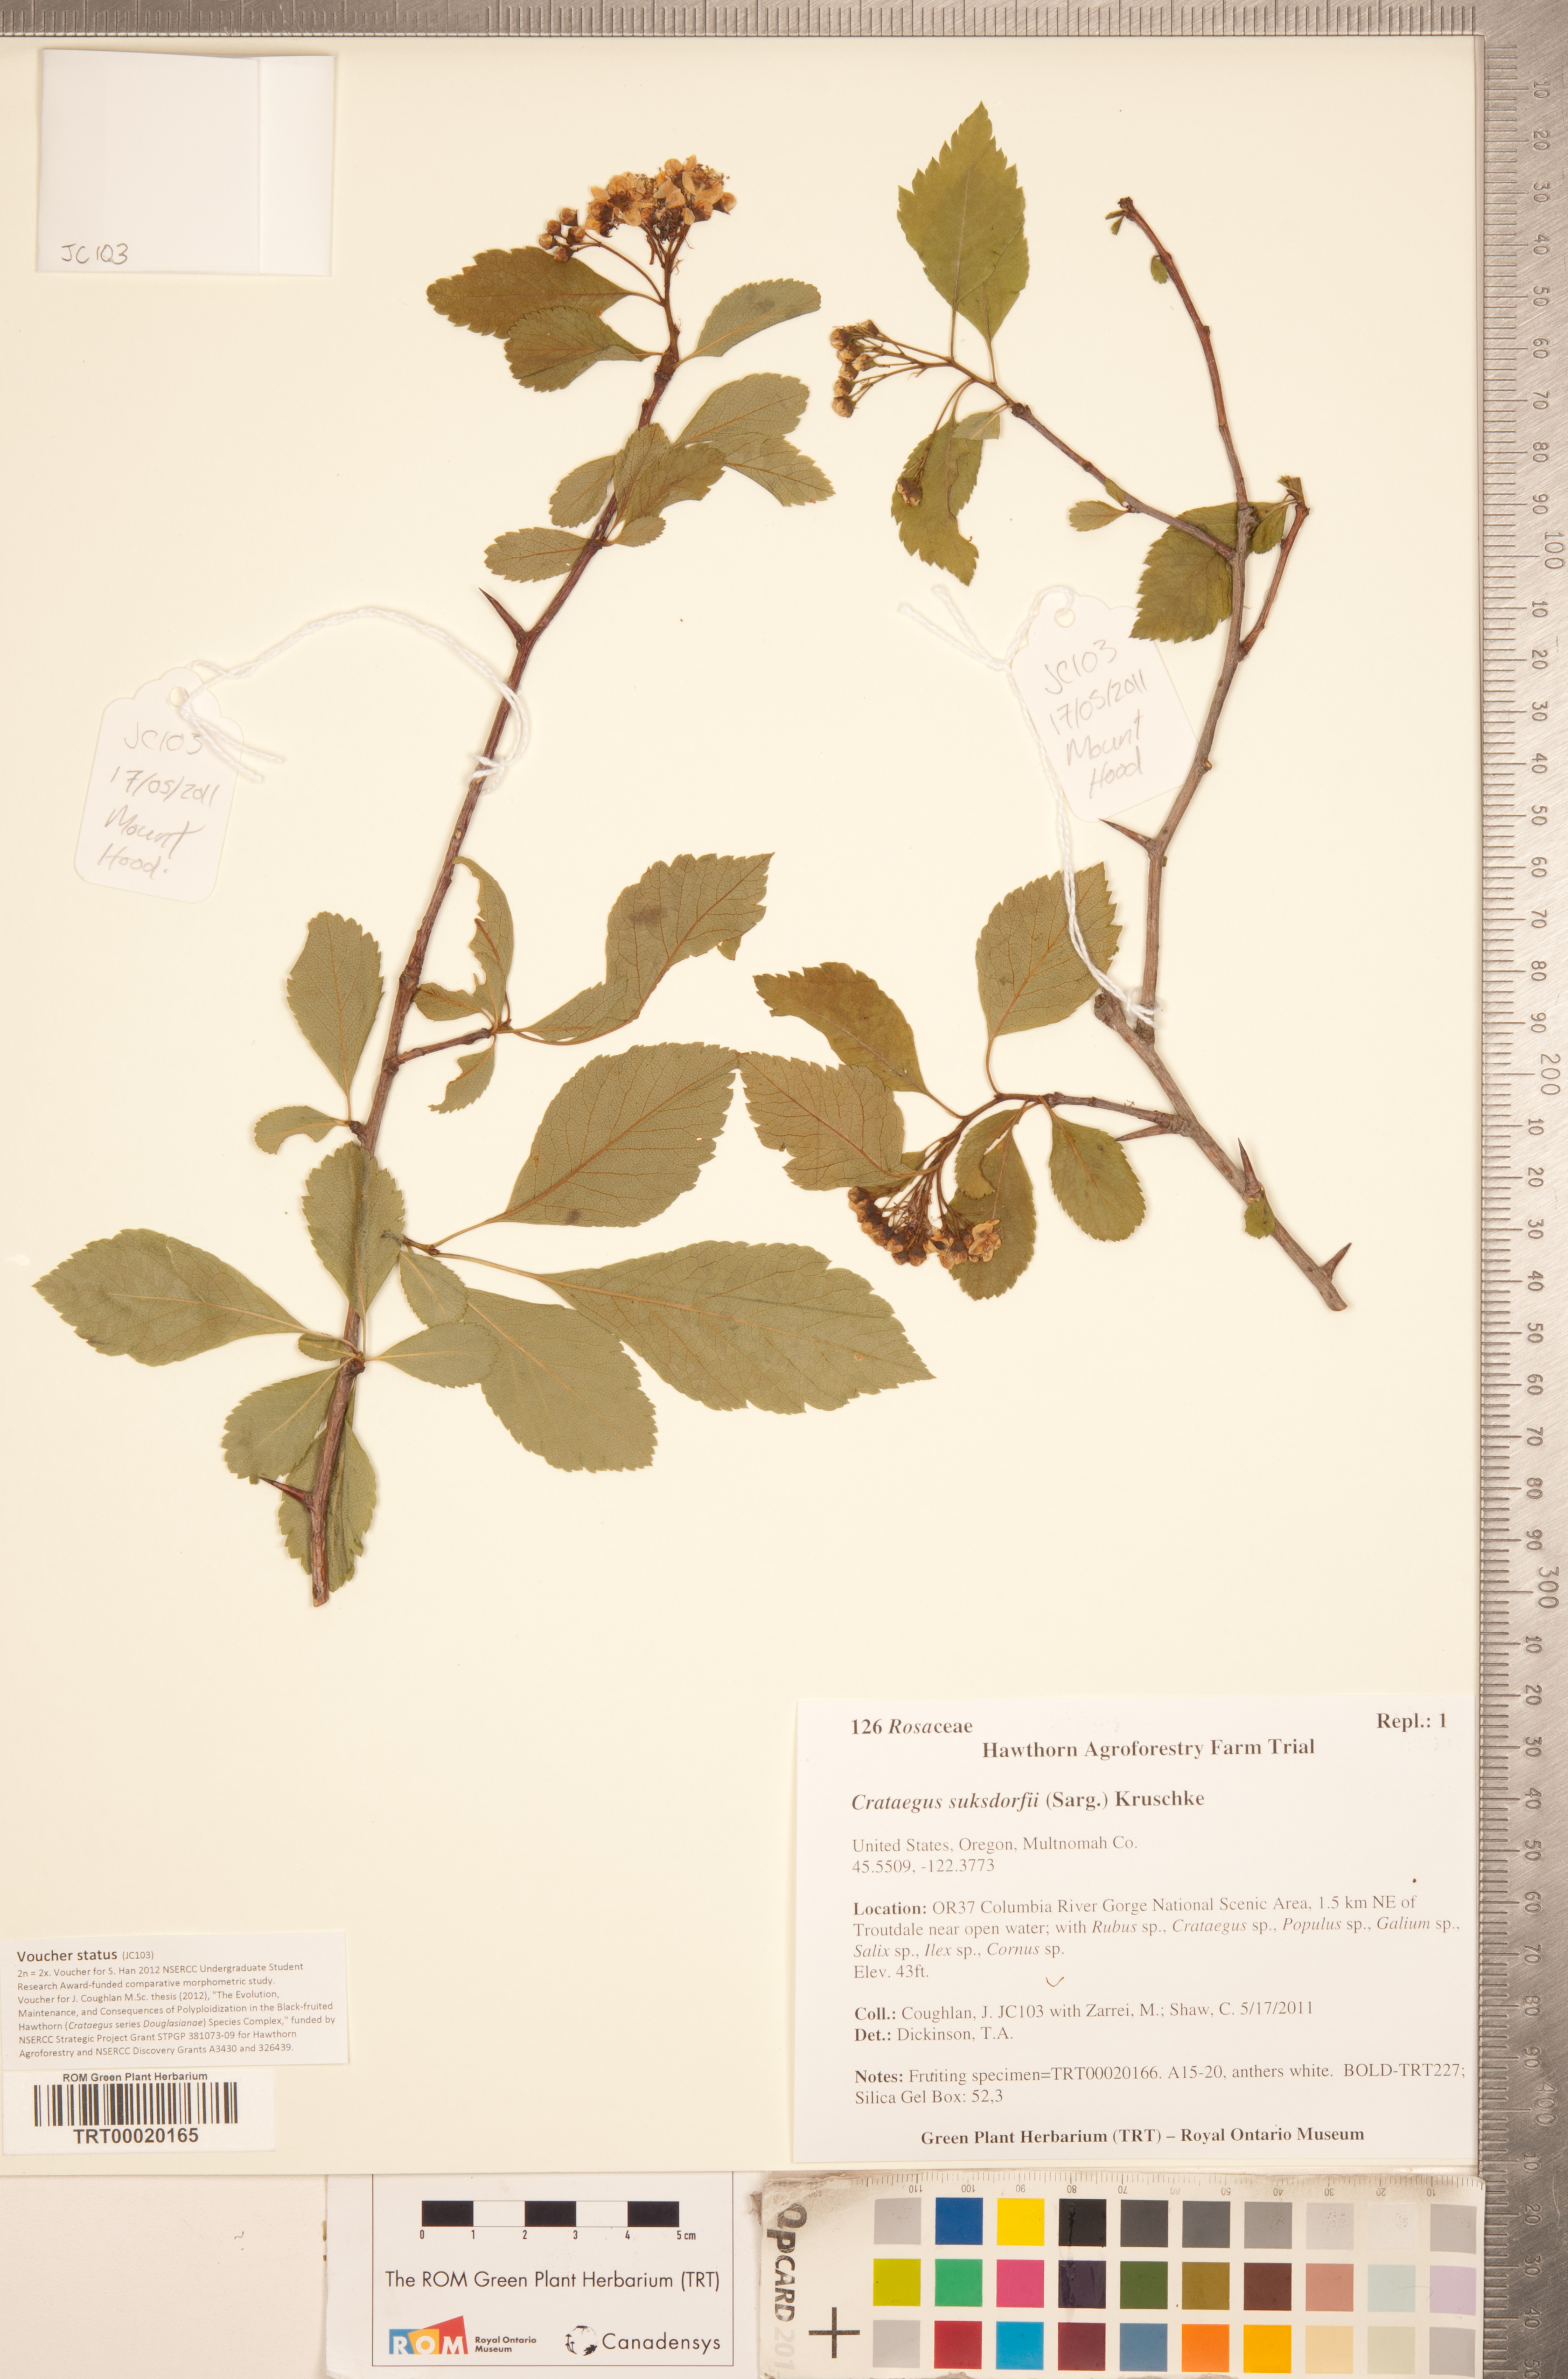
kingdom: Plantae
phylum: Tracheophyta
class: Magnoliopsida
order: Rosales
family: Rosaceae
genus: Crataegus
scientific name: Crataegus gaylussacia
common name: Huckleberry hawthorn
